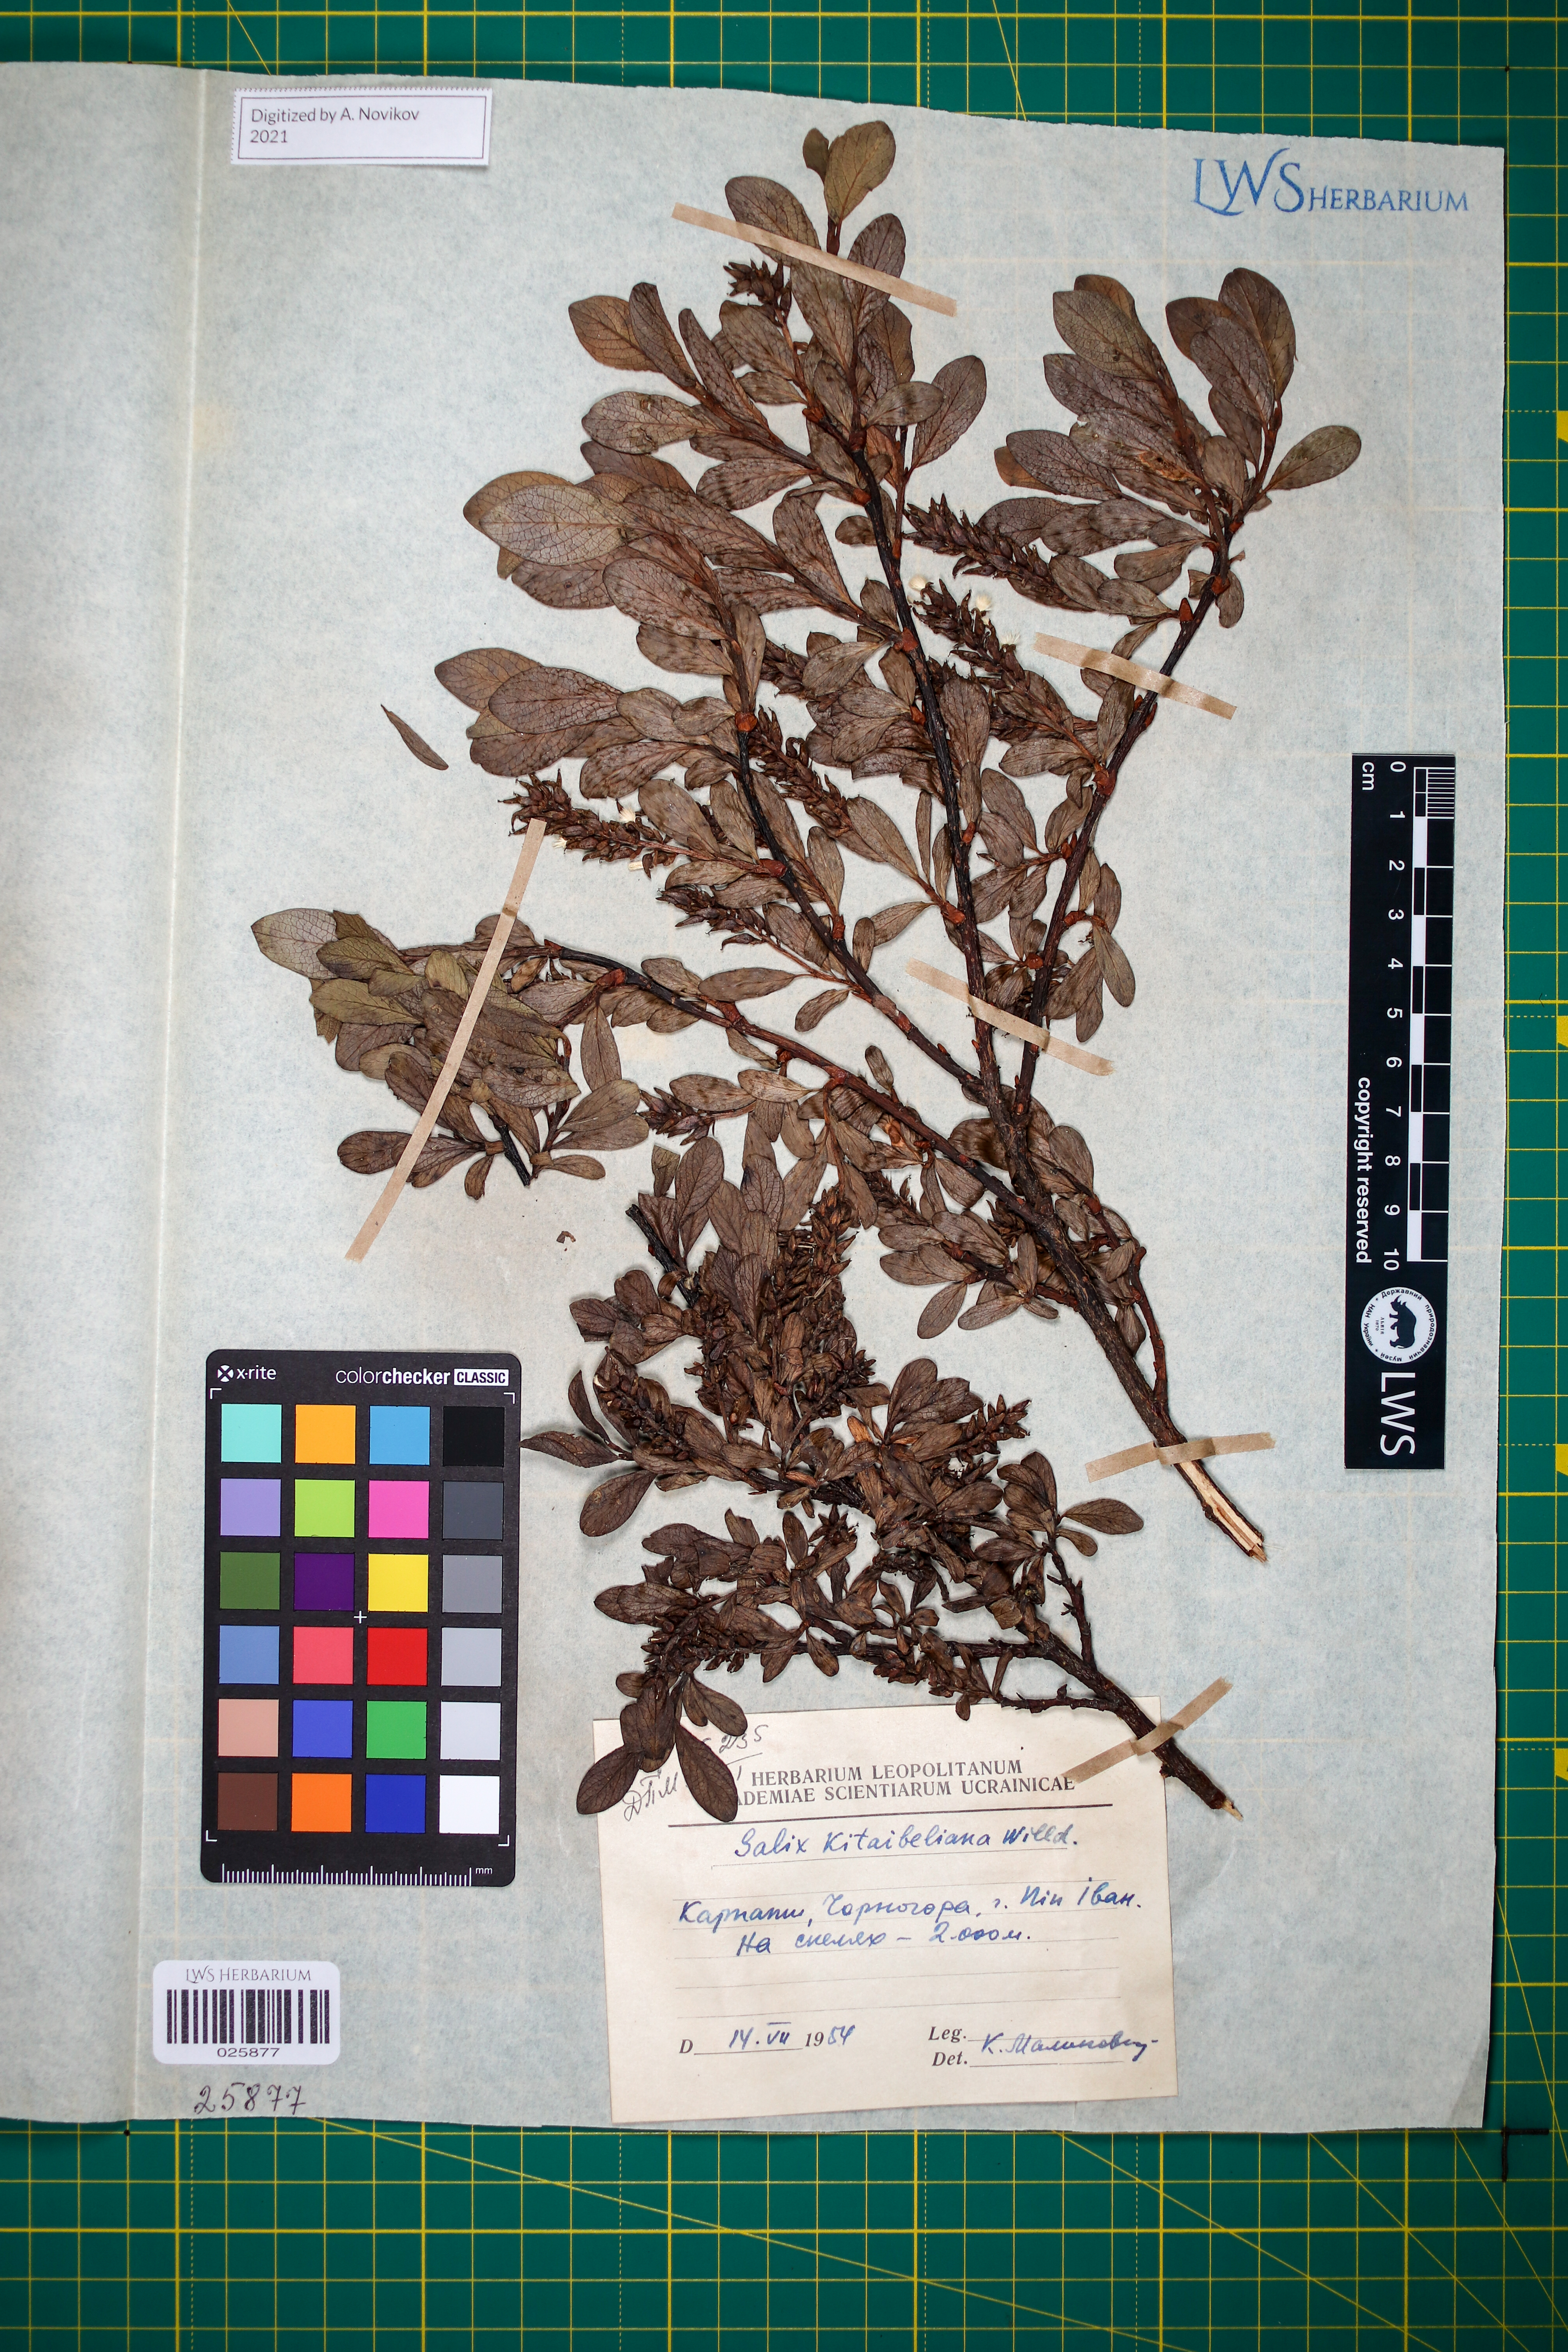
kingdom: Plantae
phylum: Tracheophyta
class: Magnoliopsida
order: Malpighiales
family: Salicaceae
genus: Salix
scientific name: Salix retusa
